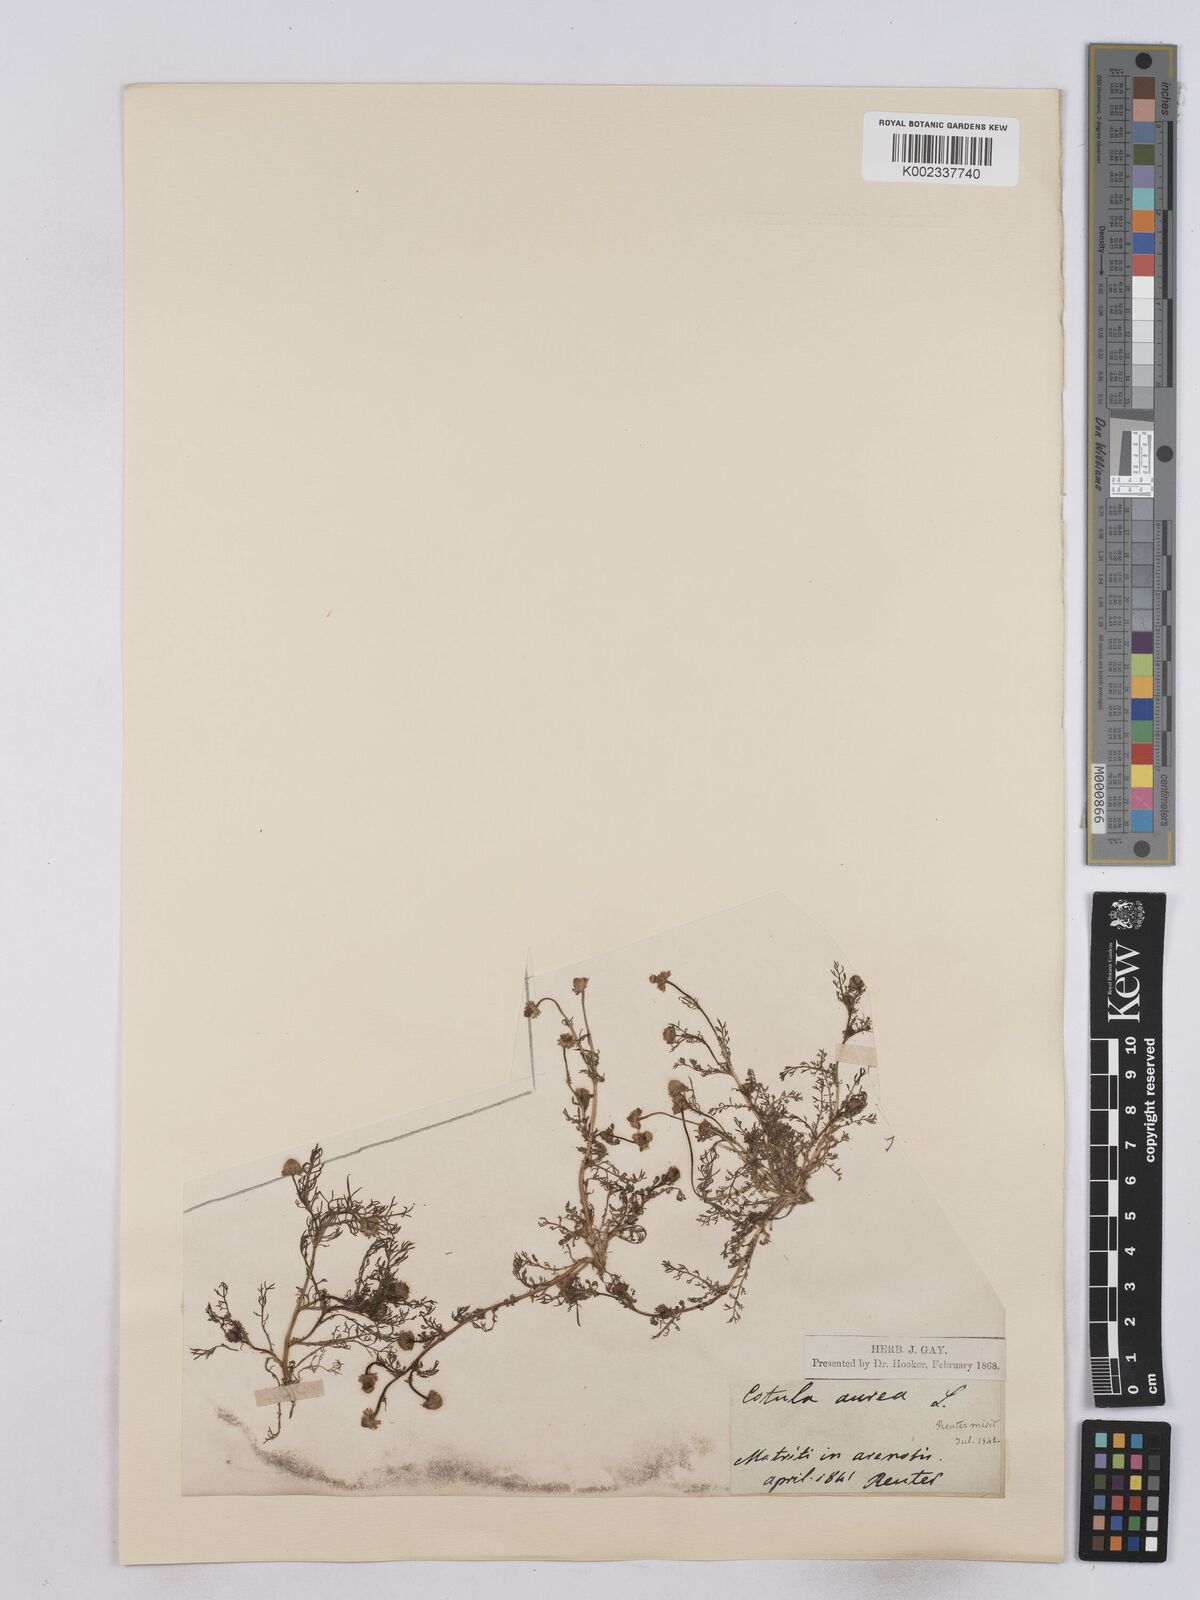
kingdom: Plantae
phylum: Tracheophyta
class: Magnoliopsida
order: Asterales
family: Asteraceae
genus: Matricaria
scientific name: Matricaria aurea
